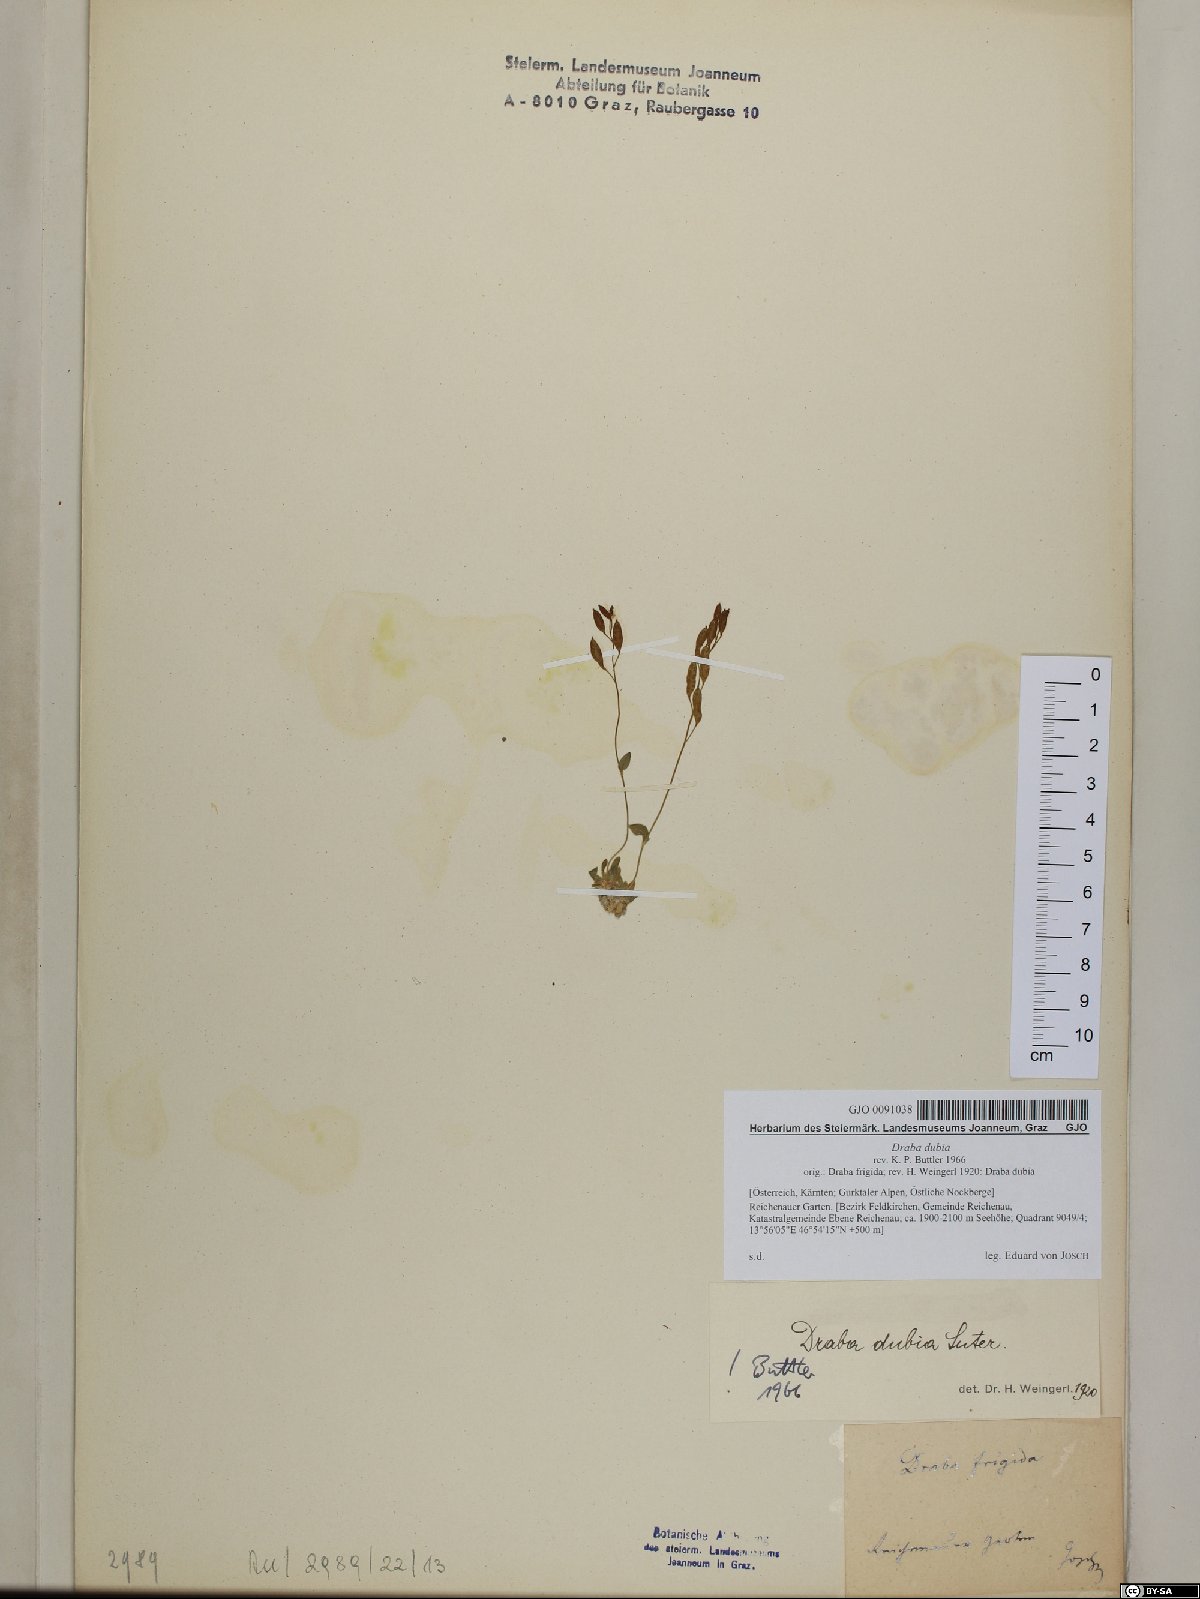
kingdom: Plantae
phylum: Tracheophyta
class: Magnoliopsida
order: Brassicales
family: Brassicaceae
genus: Draba
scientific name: Draba dubia
